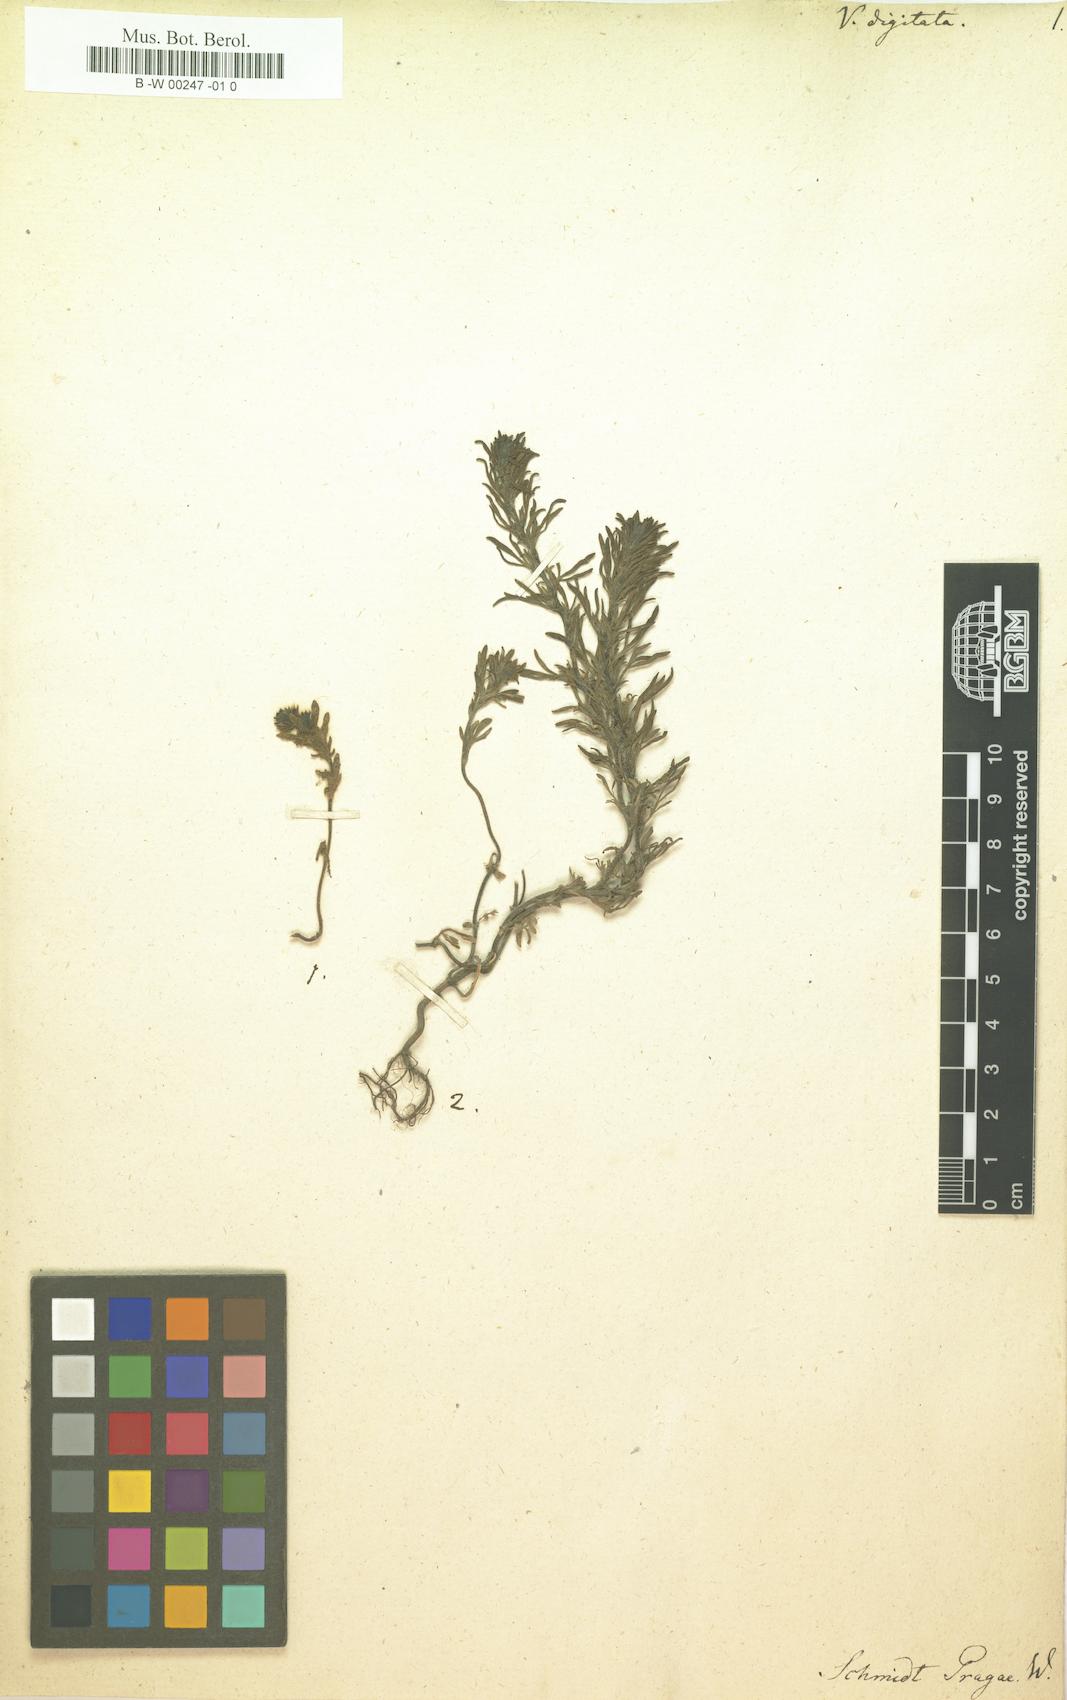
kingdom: Plantae
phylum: Tracheophyta
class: Magnoliopsida
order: Lamiales
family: Plantaginaceae
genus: Veronica
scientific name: Veronica
